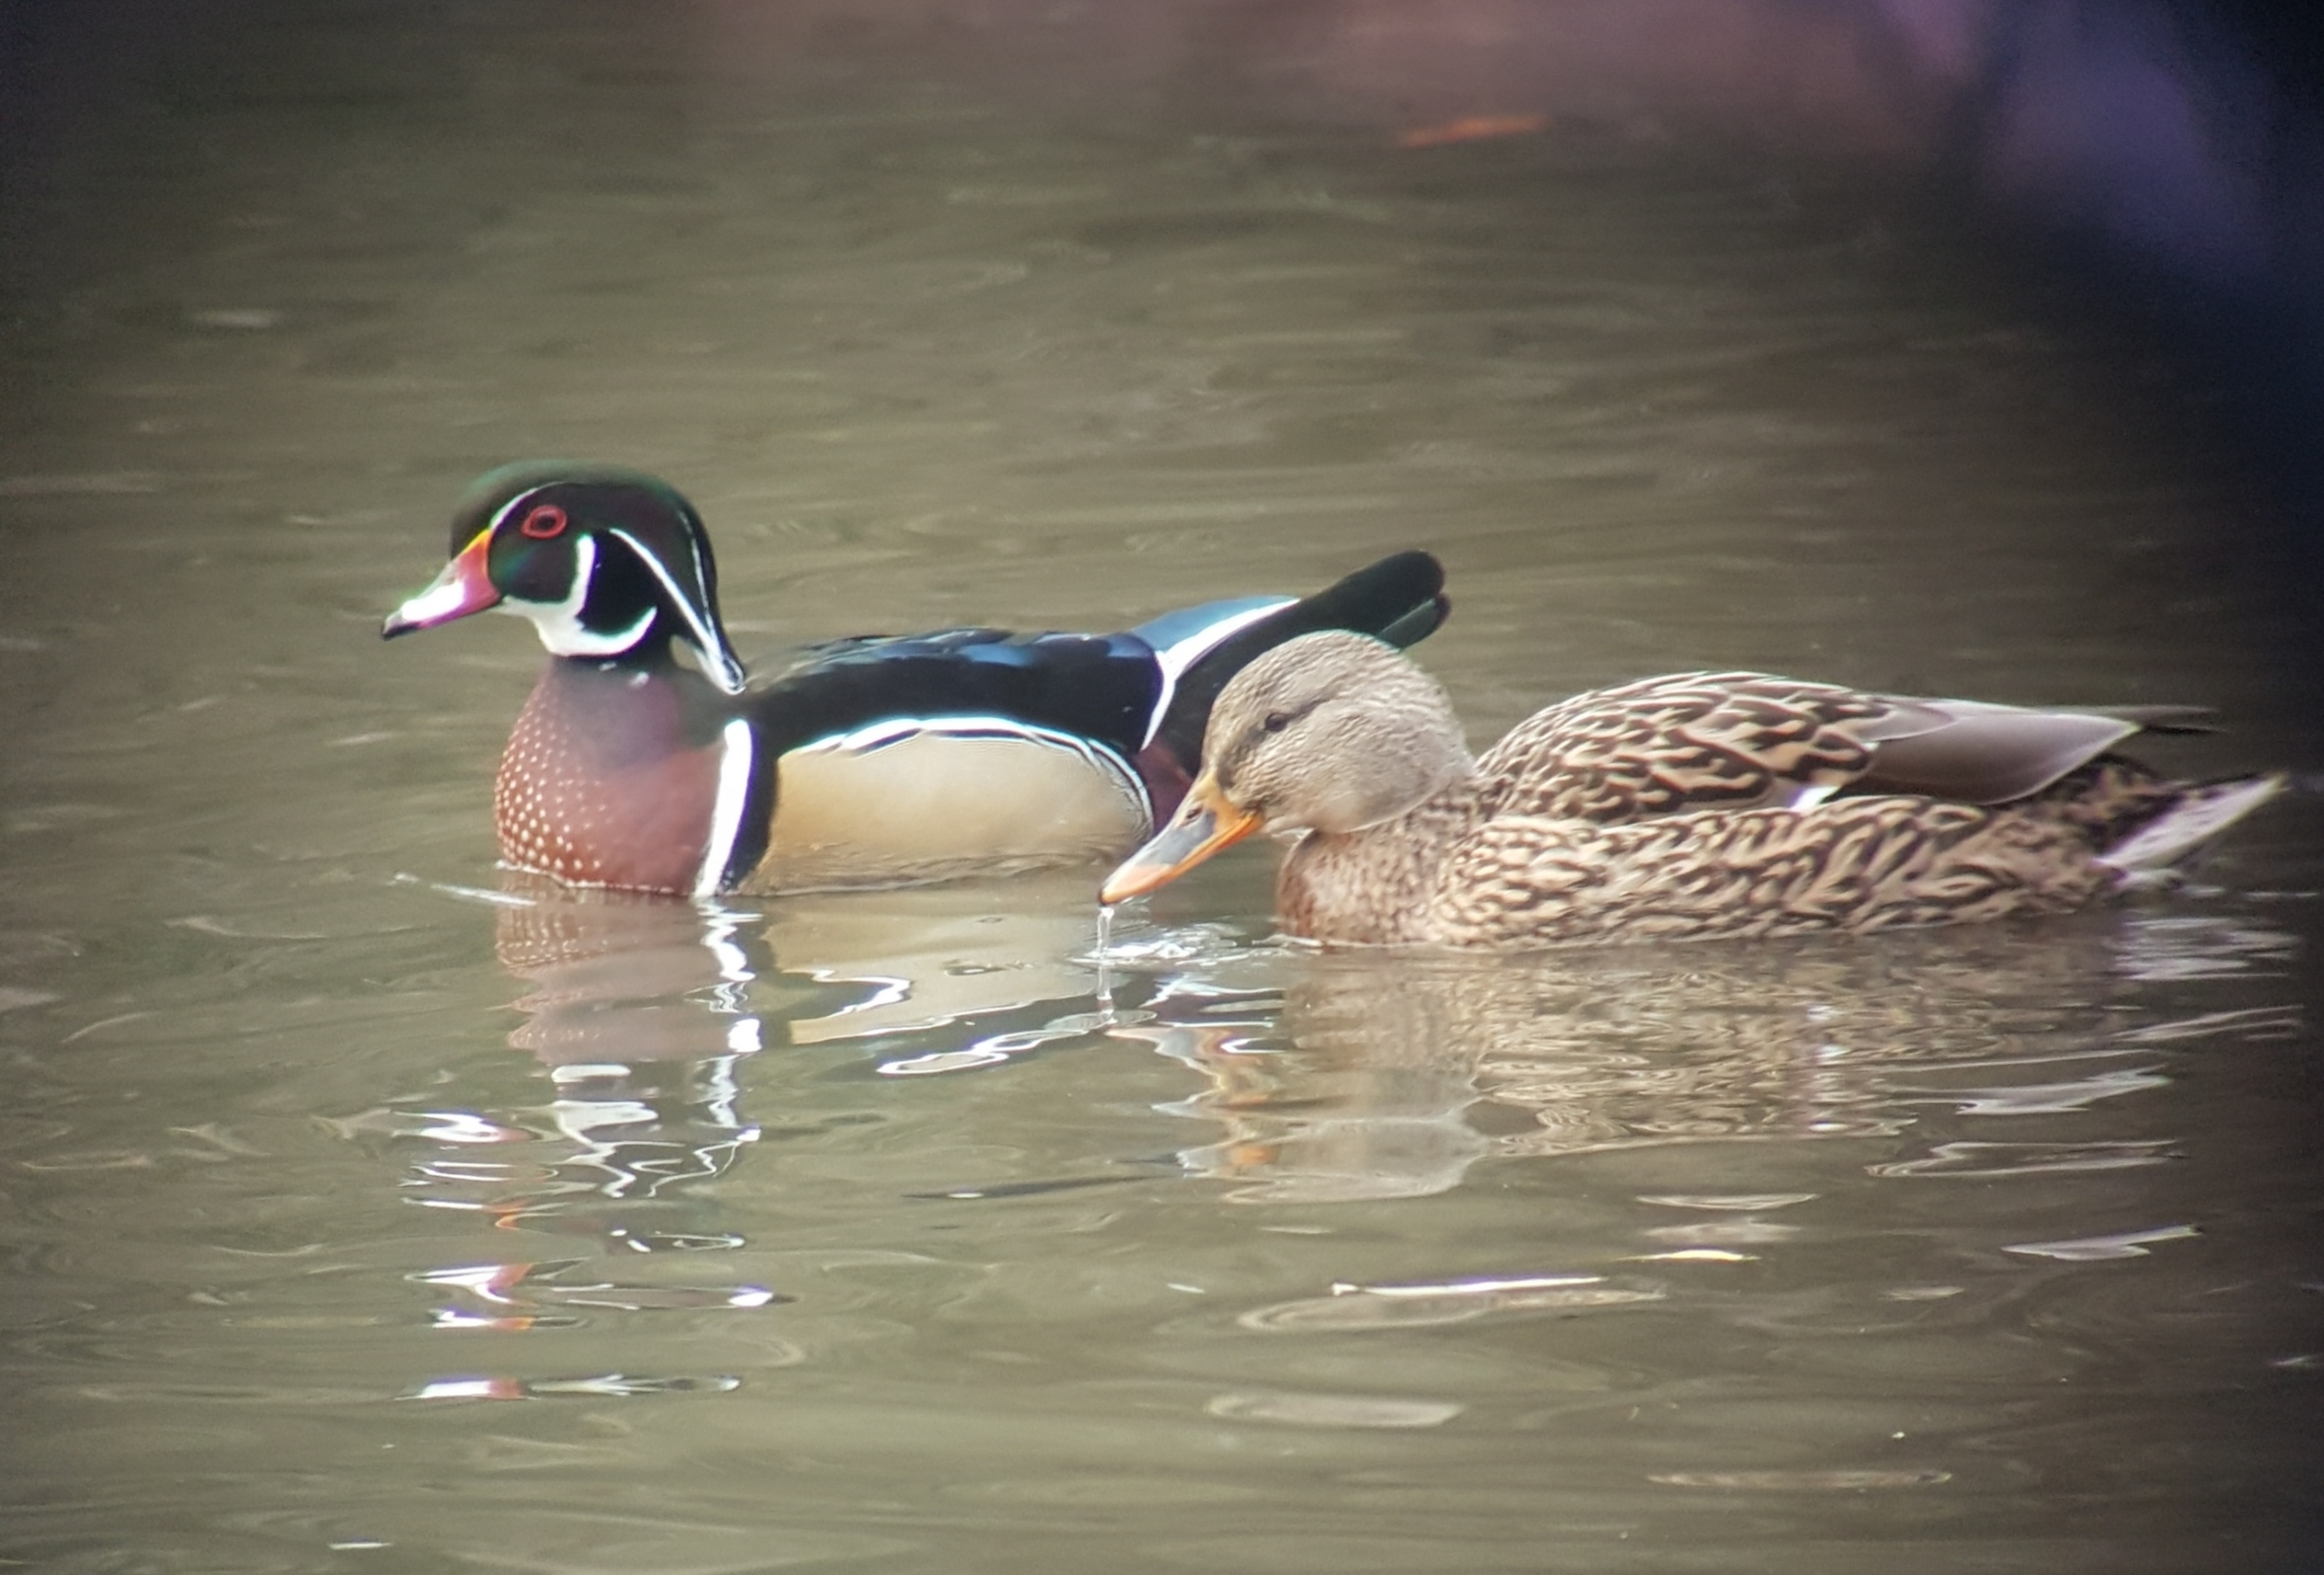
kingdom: Animalia
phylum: Chordata
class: Aves
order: Anseriformes
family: Anatidae
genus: Anas
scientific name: Anas platyrhynchos
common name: Gråand
